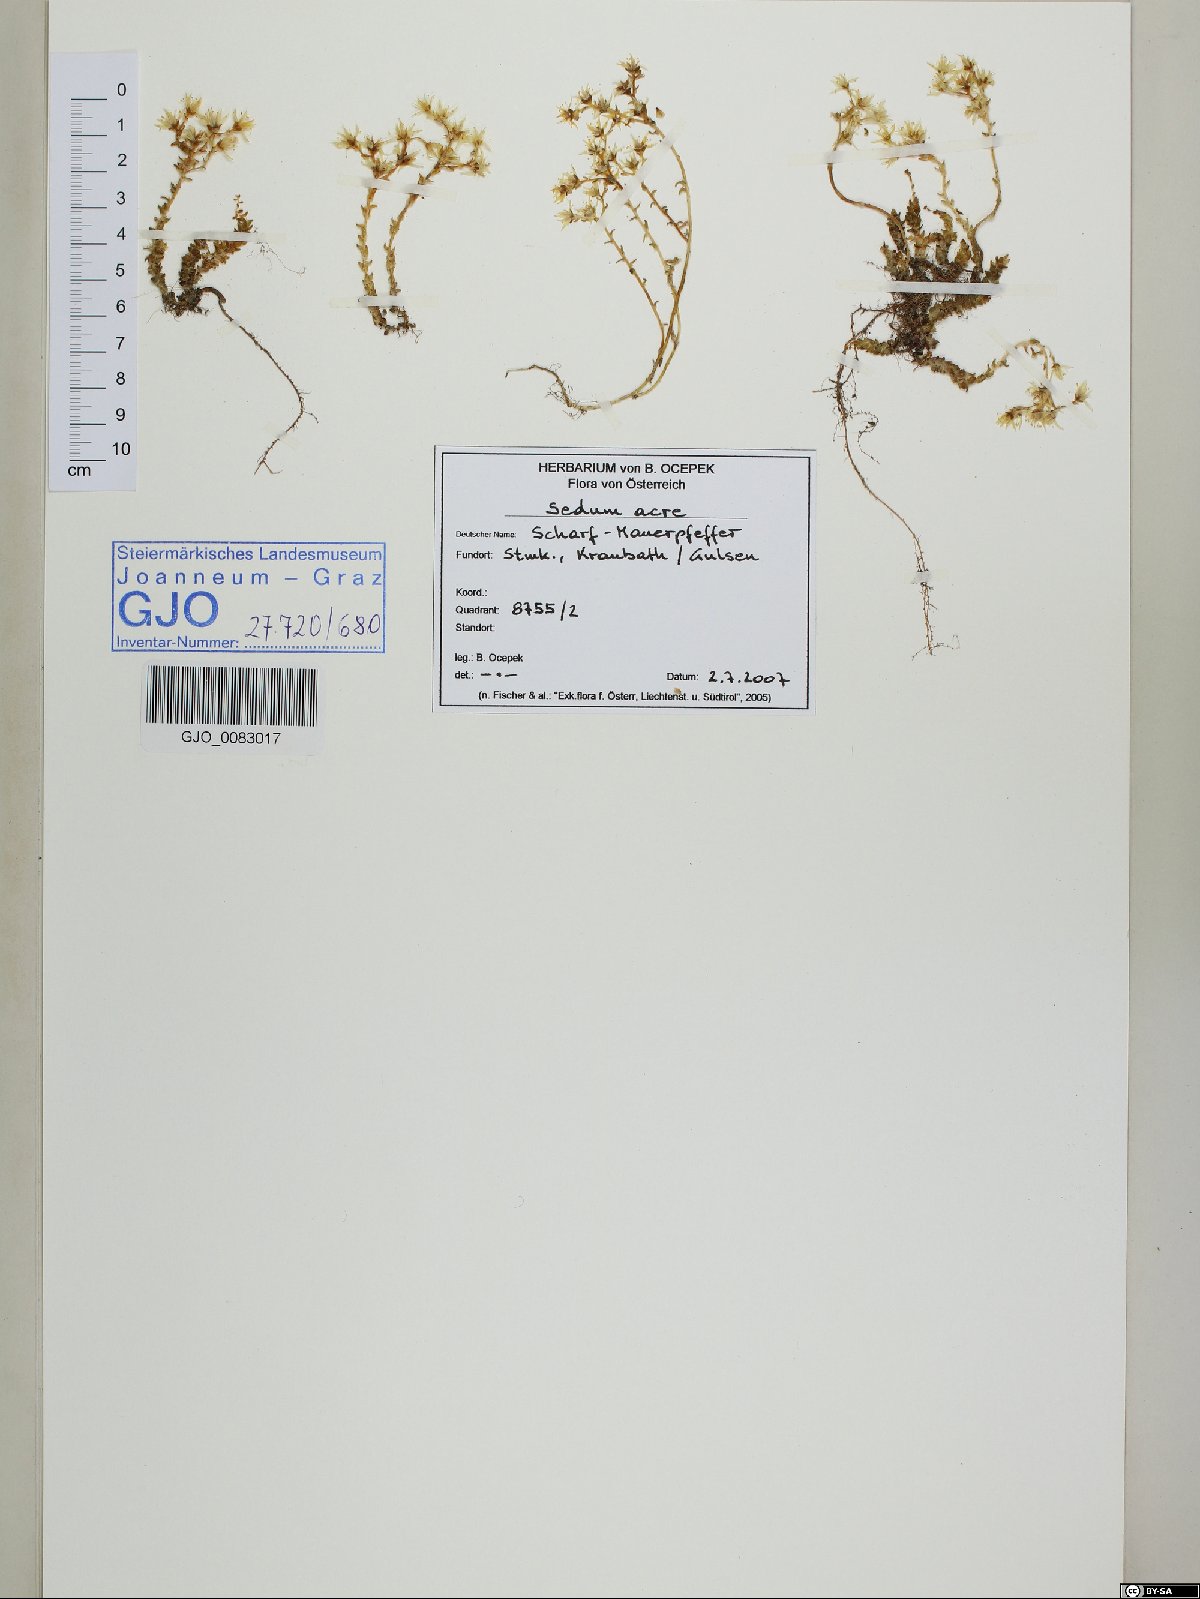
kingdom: Plantae
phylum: Tracheophyta
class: Magnoliopsida
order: Saxifragales
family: Crassulaceae
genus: Sedum
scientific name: Sedum acre
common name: Biting stonecrop
